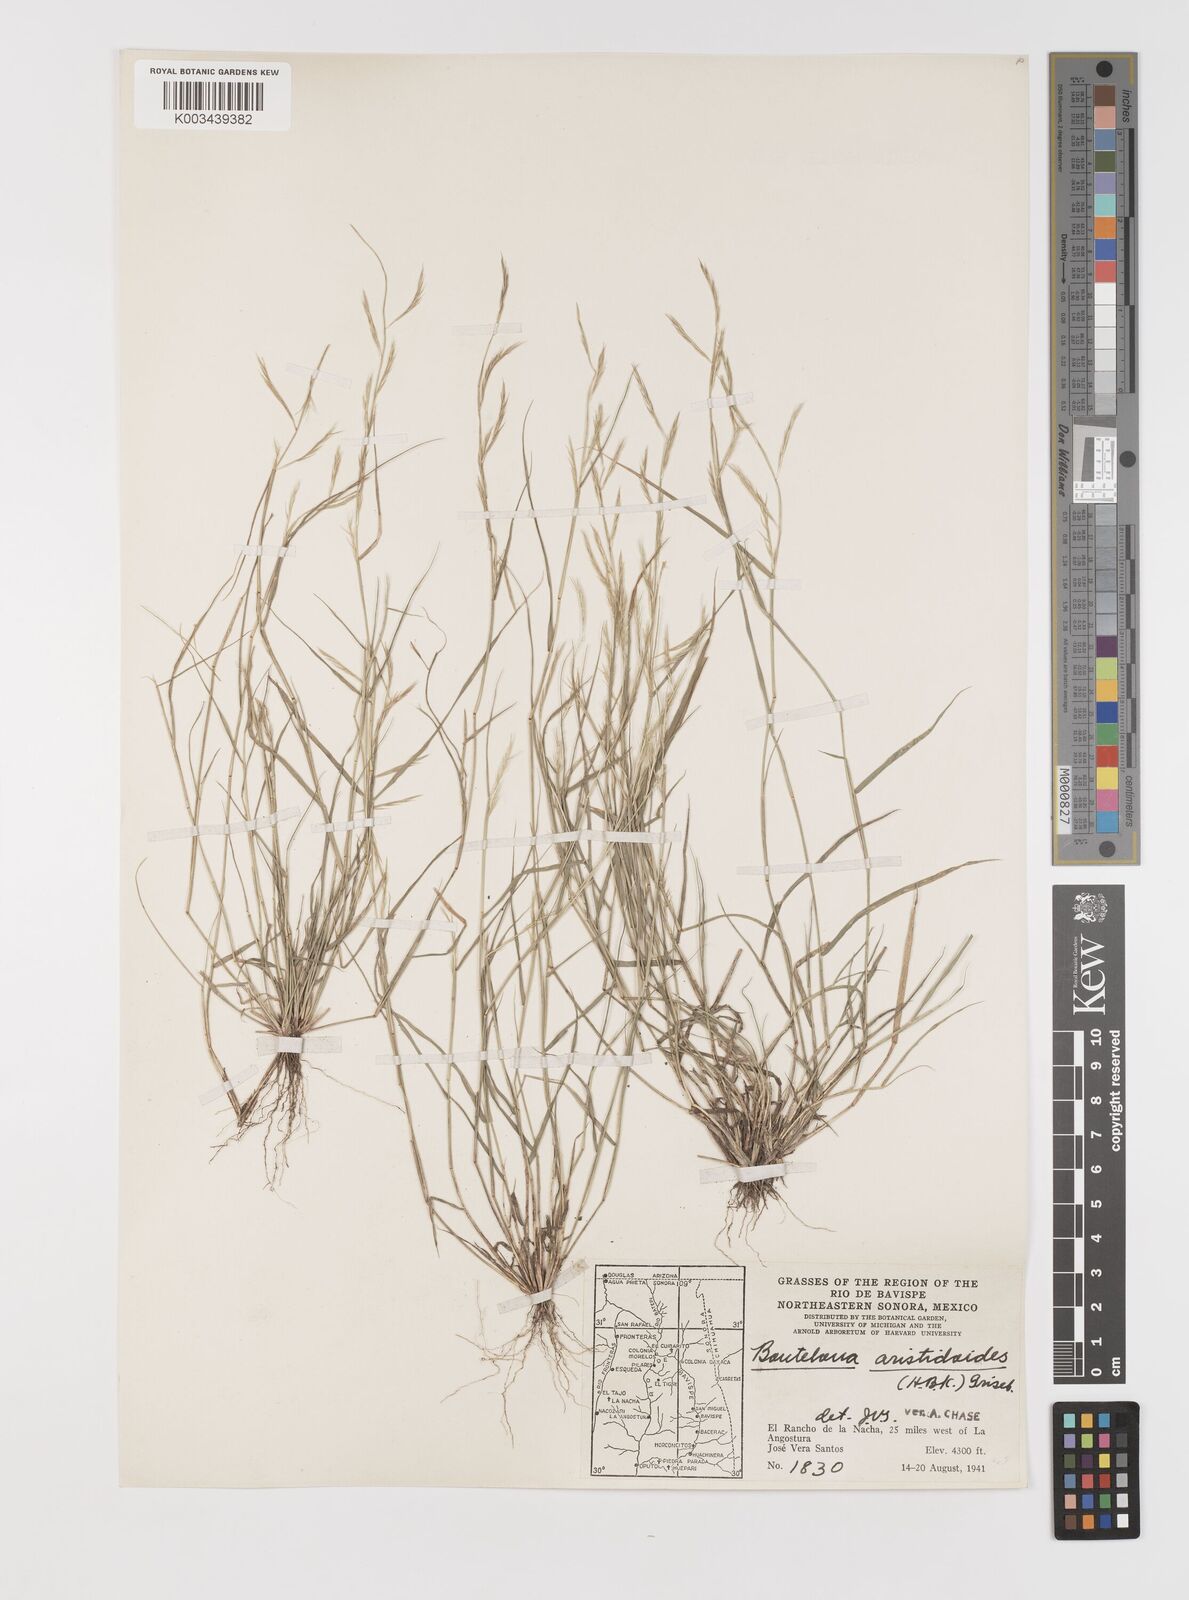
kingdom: Plantae
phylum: Tracheophyta
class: Liliopsida
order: Poales
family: Poaceae
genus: Bouteloua
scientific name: Bouteloua aristidoides
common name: Needle grama
